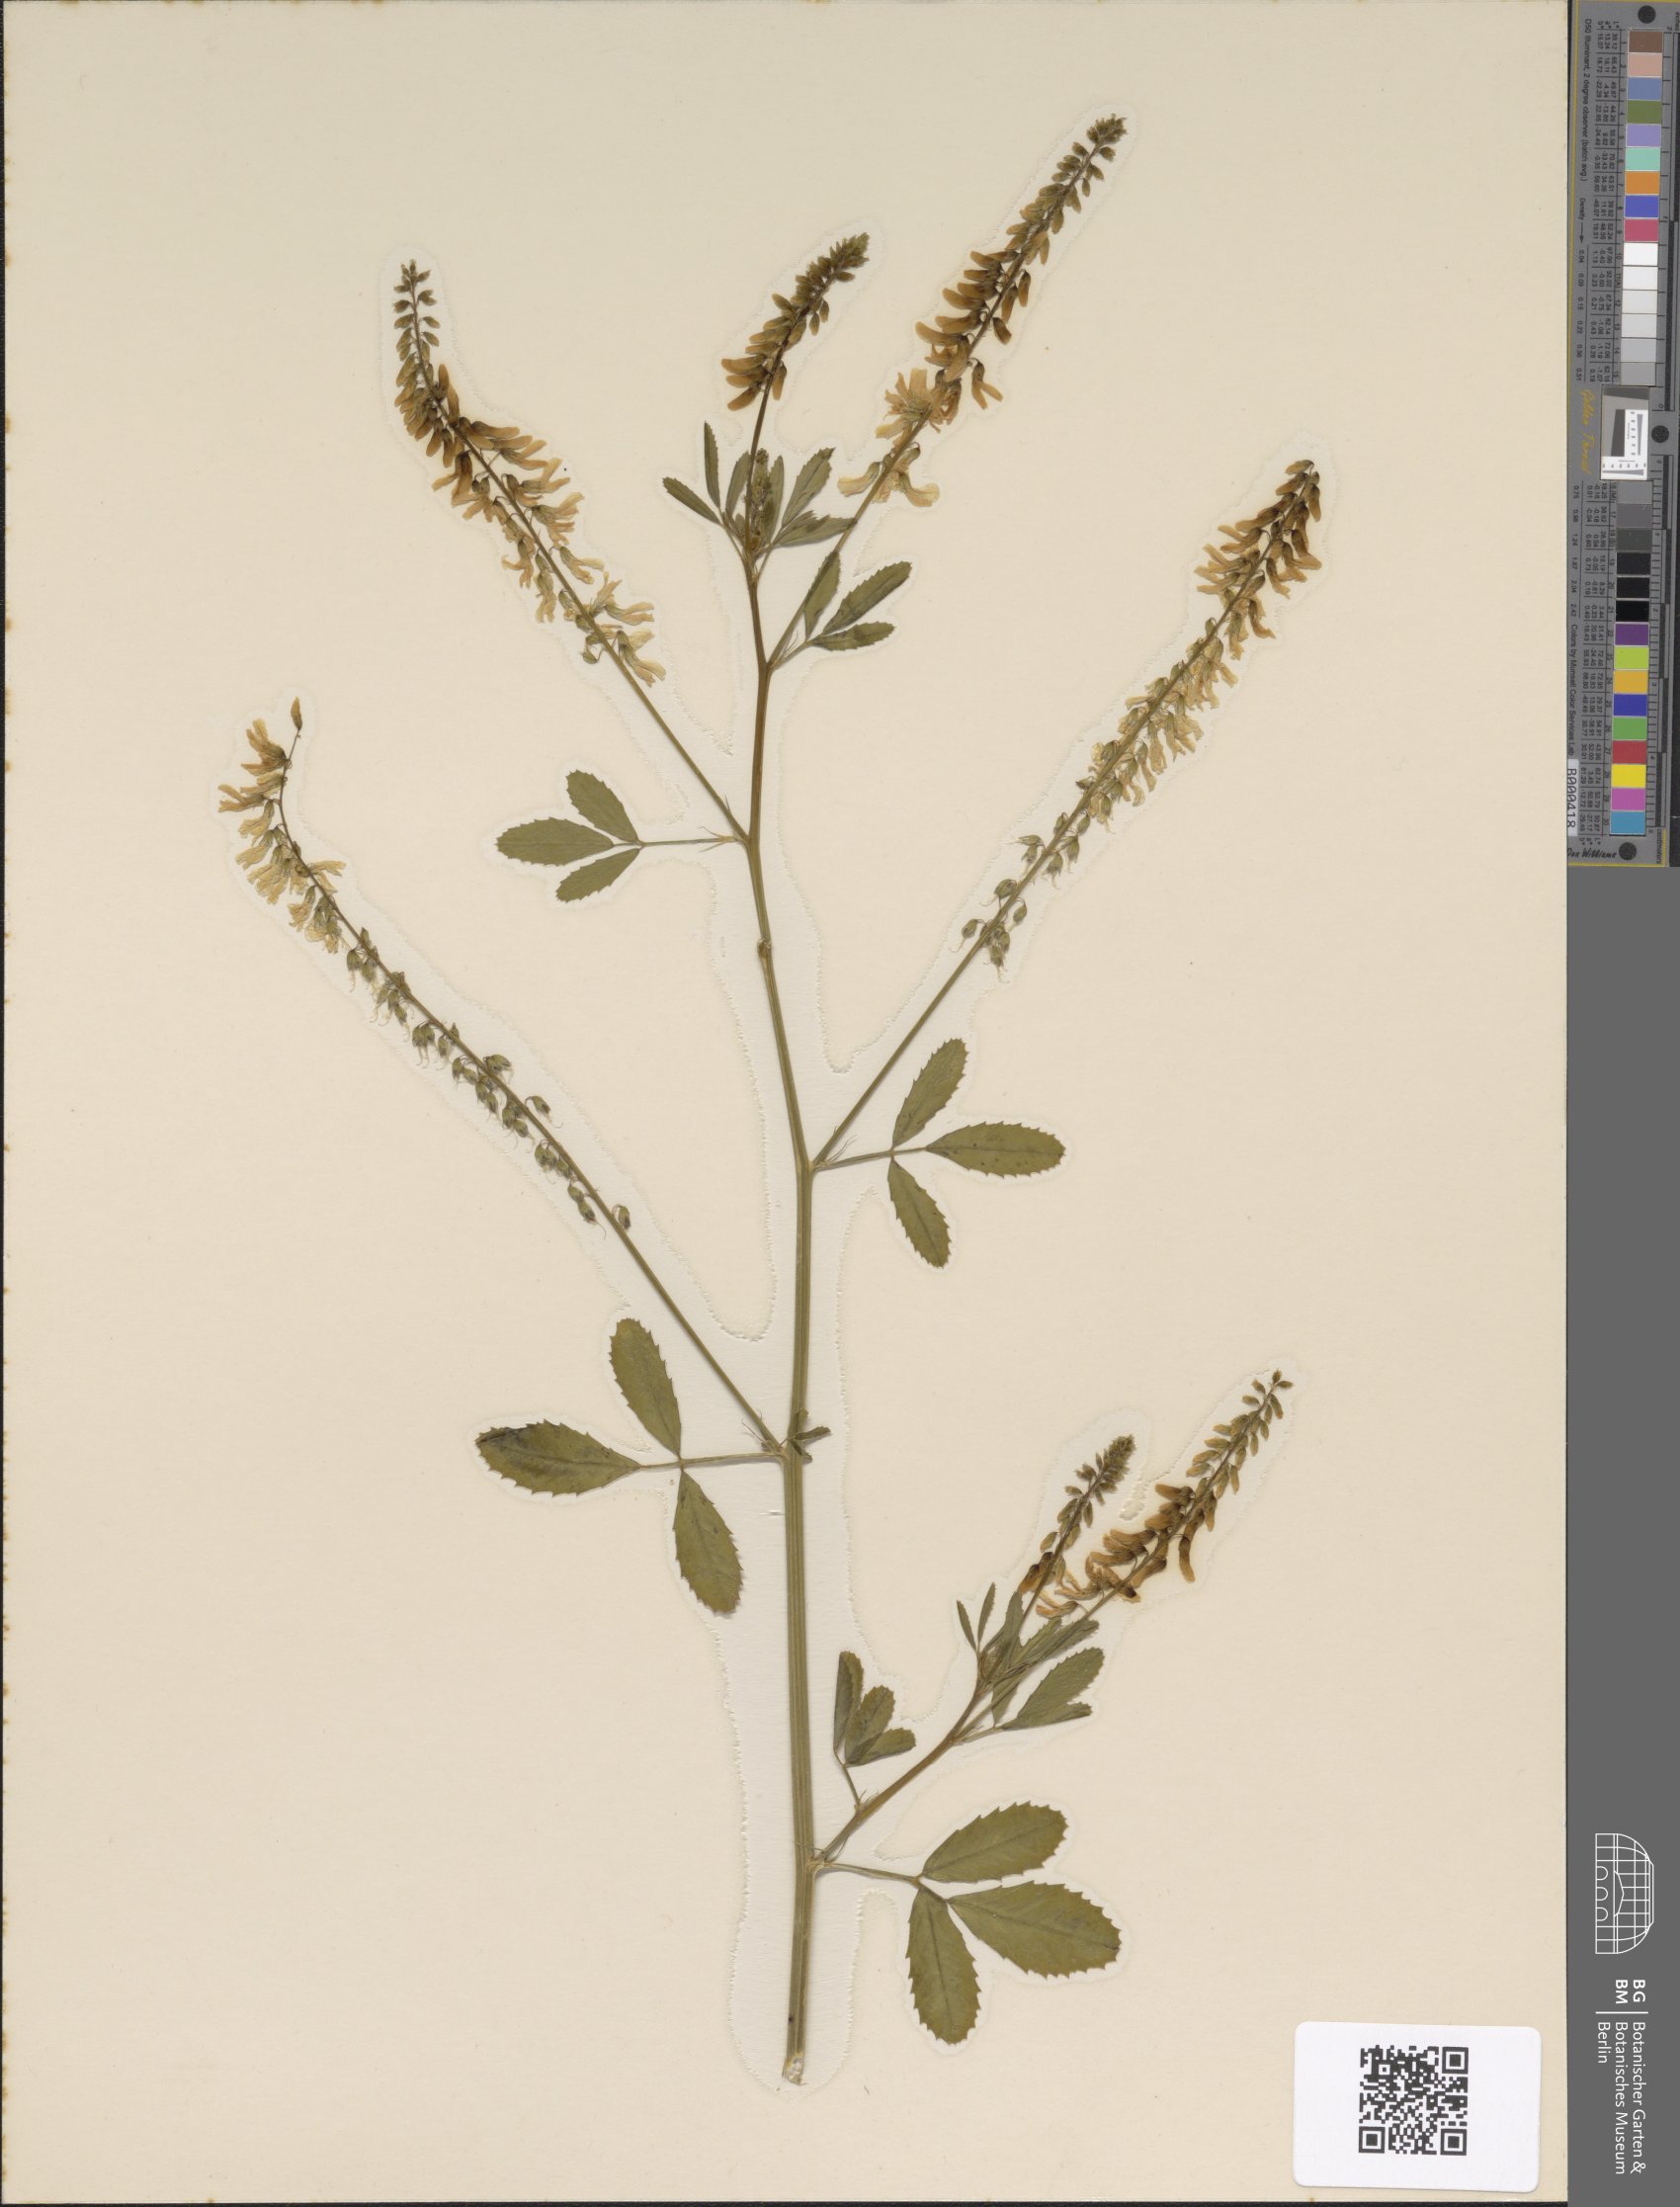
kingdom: Plantae
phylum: Tracheophyta
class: Magnoliopsida
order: Fabales
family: Fabaceae
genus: Melilotus
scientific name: Melilotus officinalis
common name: Sweetclover
